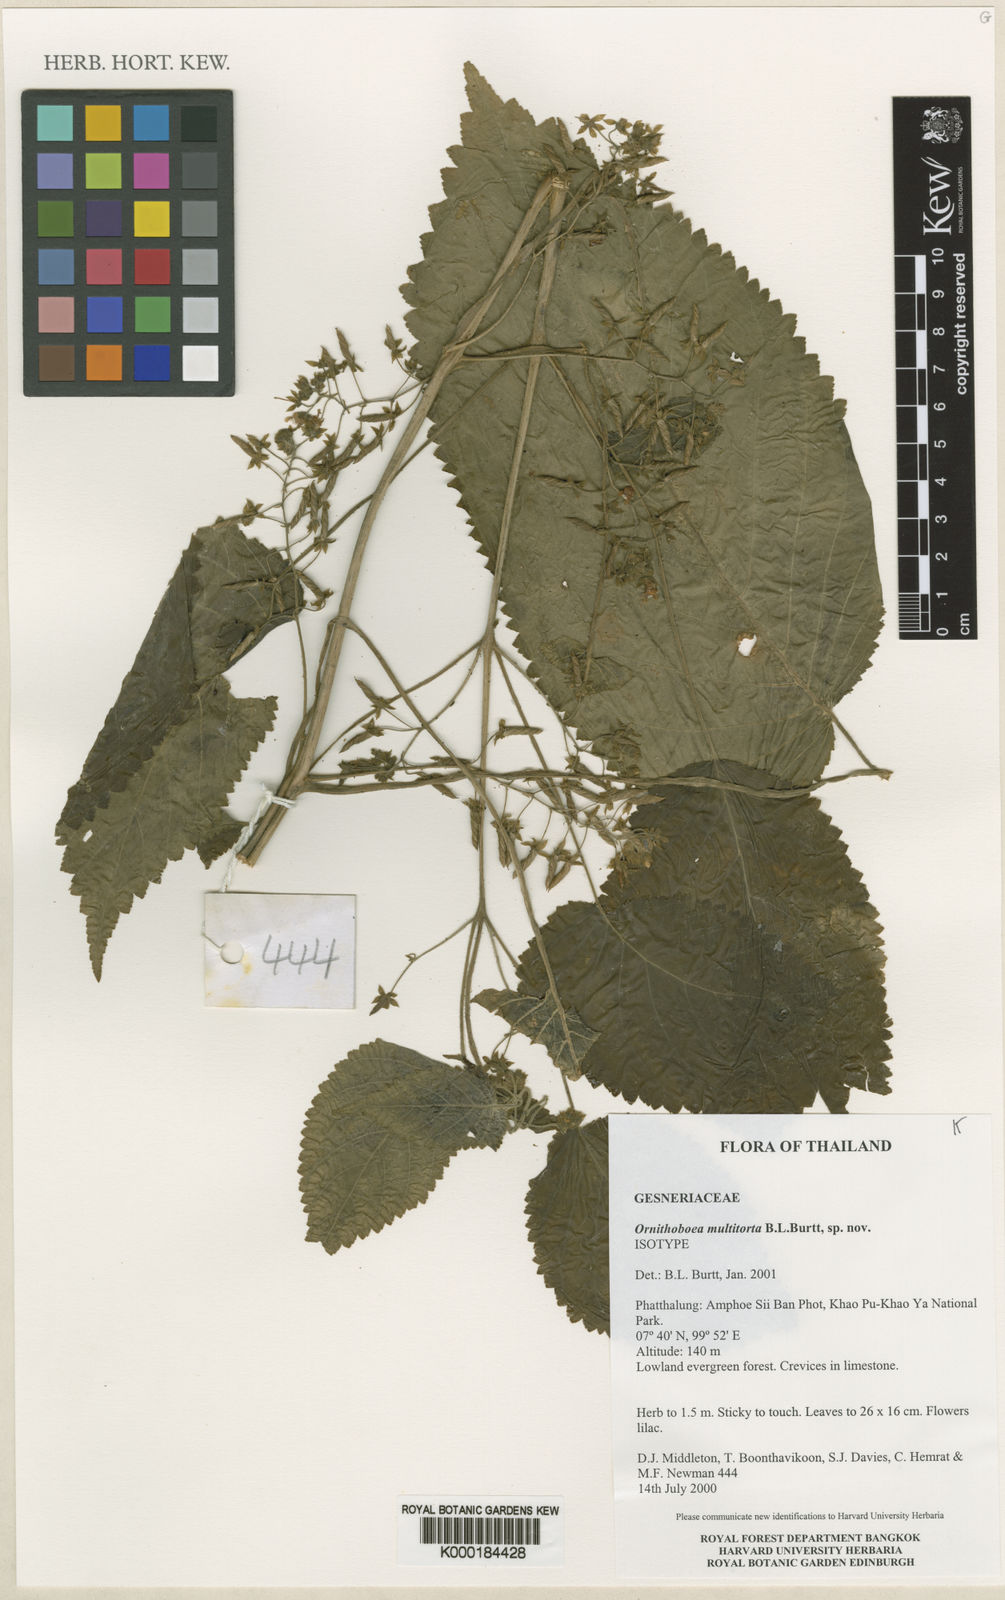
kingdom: Plantae
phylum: Tracheophyta
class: Magnoliopsida
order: Lamiales
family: Gesneriaceae
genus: Ornithoboea
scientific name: Ornithoboea multitorta
